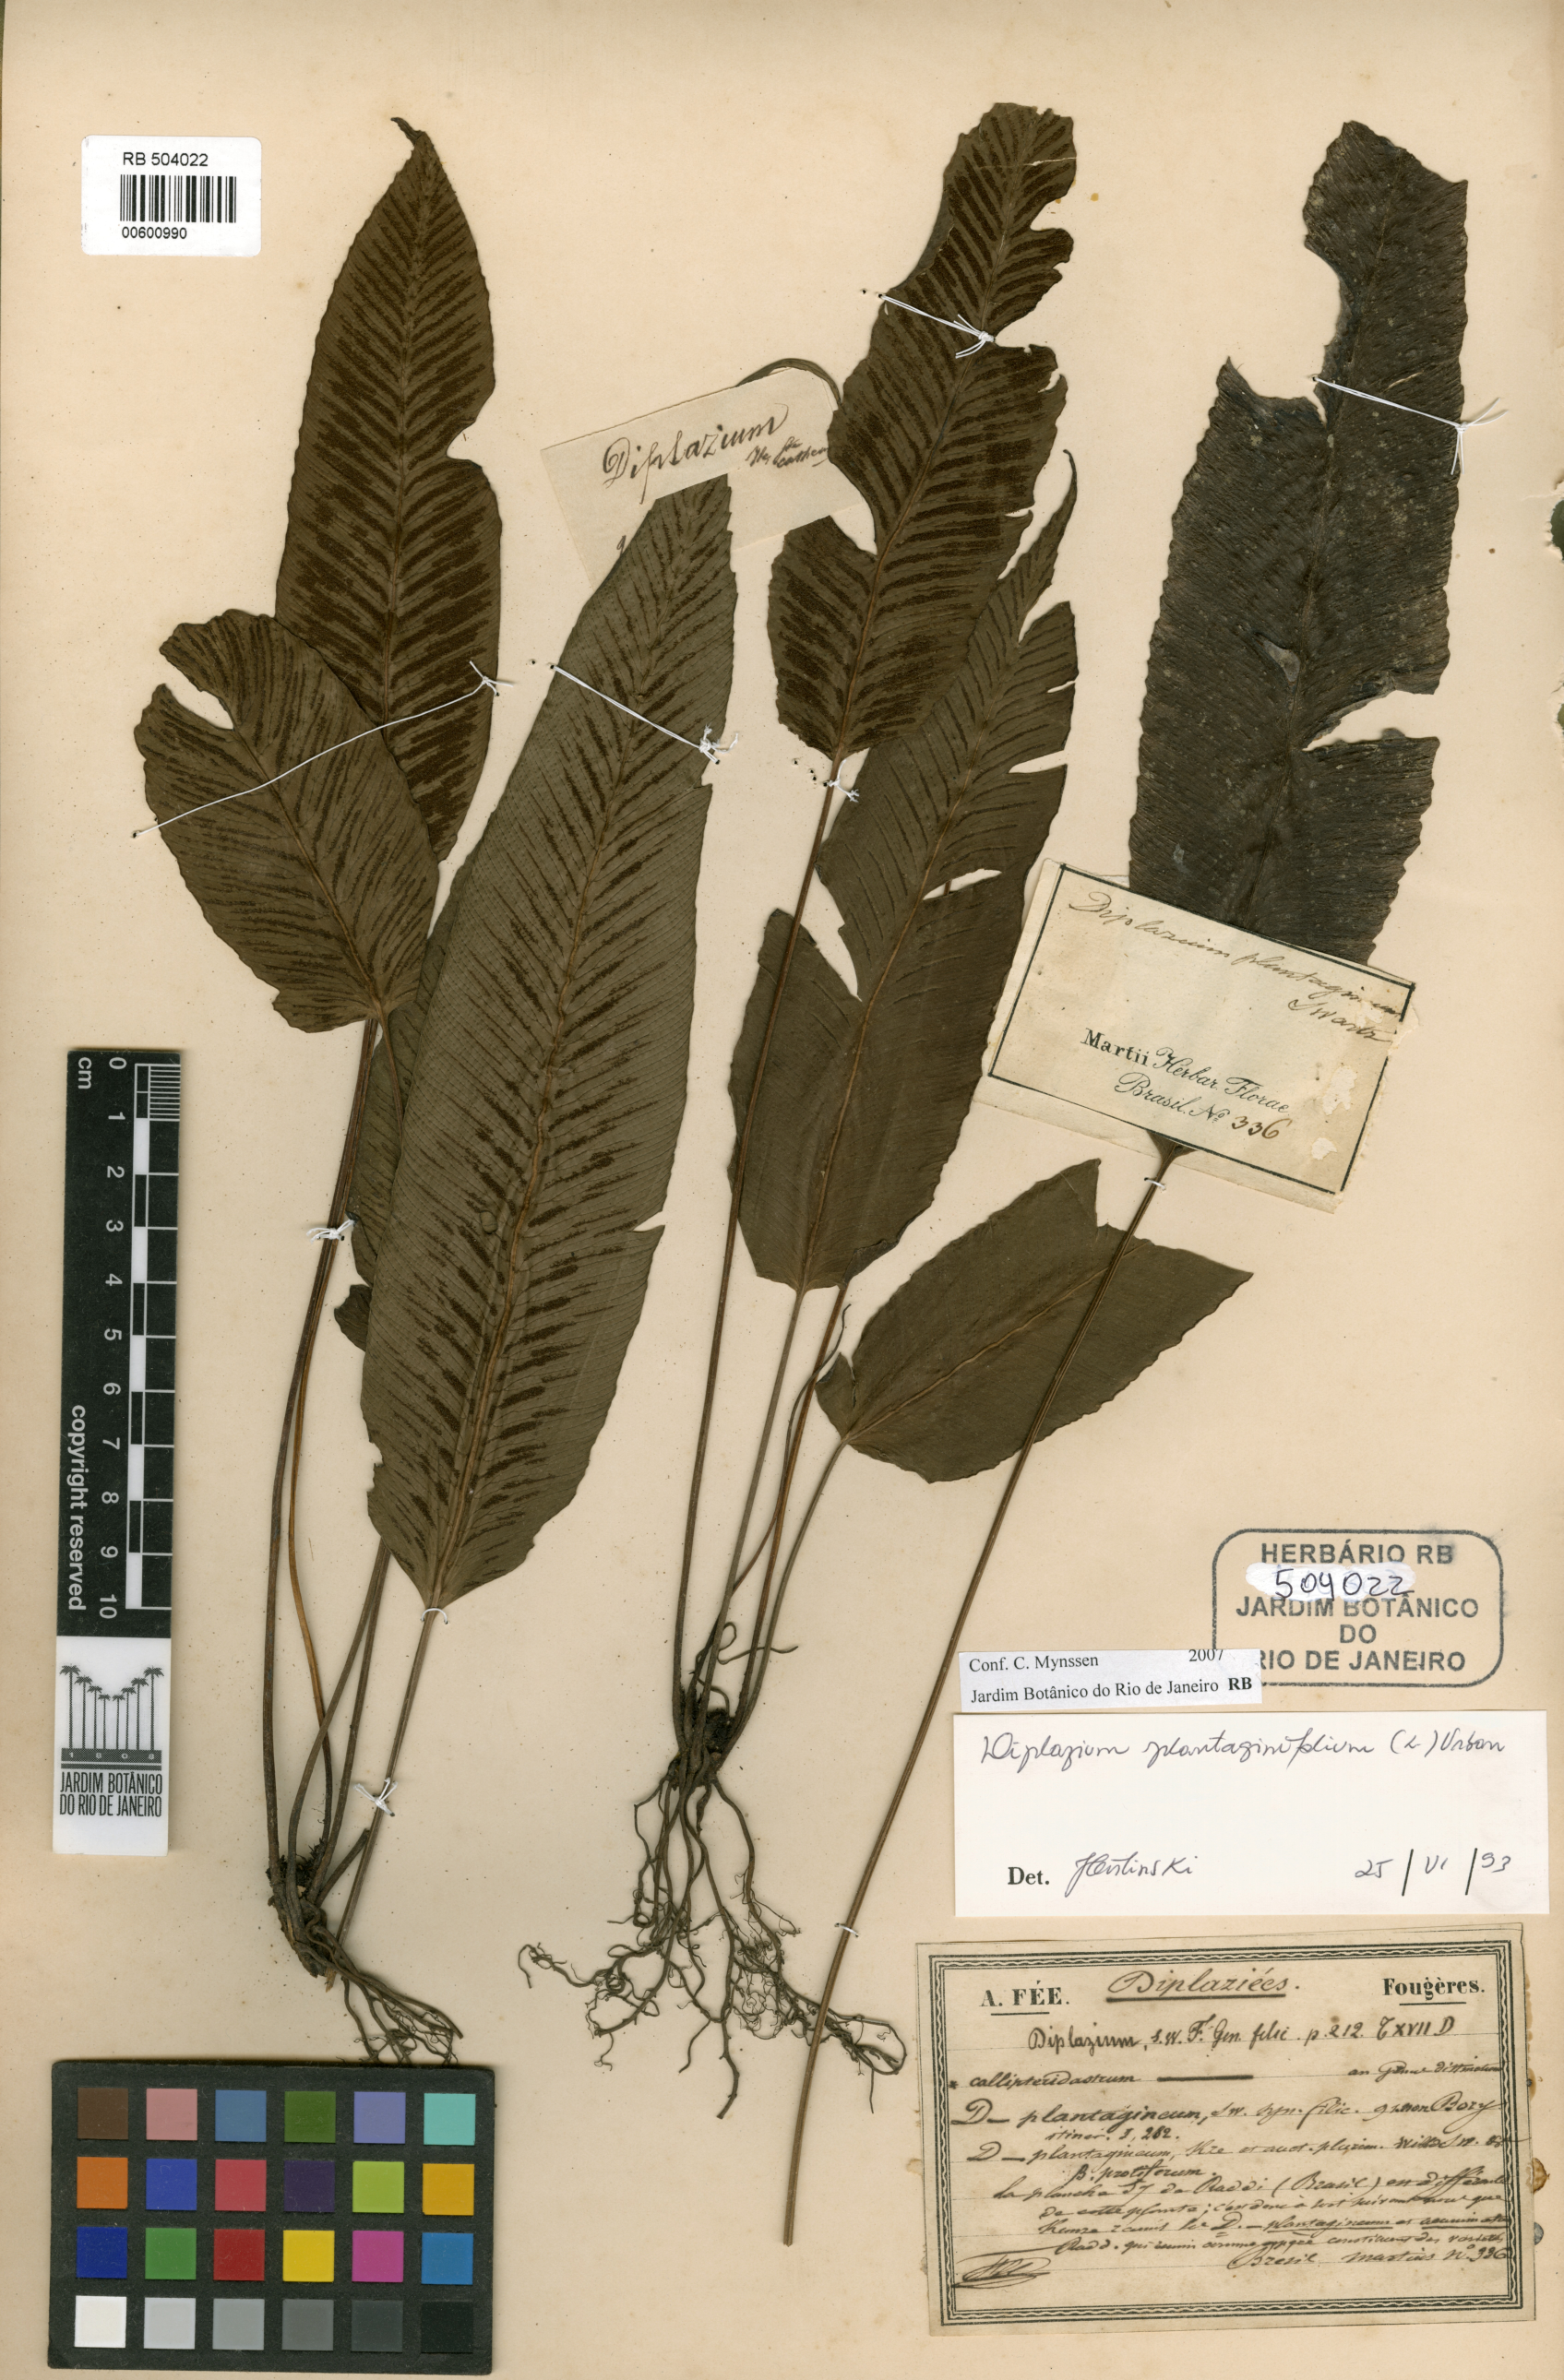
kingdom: Plantae
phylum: Tracheophyta
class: Polypodiopsida
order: Polypodiales
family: Athyriaceae
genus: Diplazium
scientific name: Diplazium plantaginifolium
